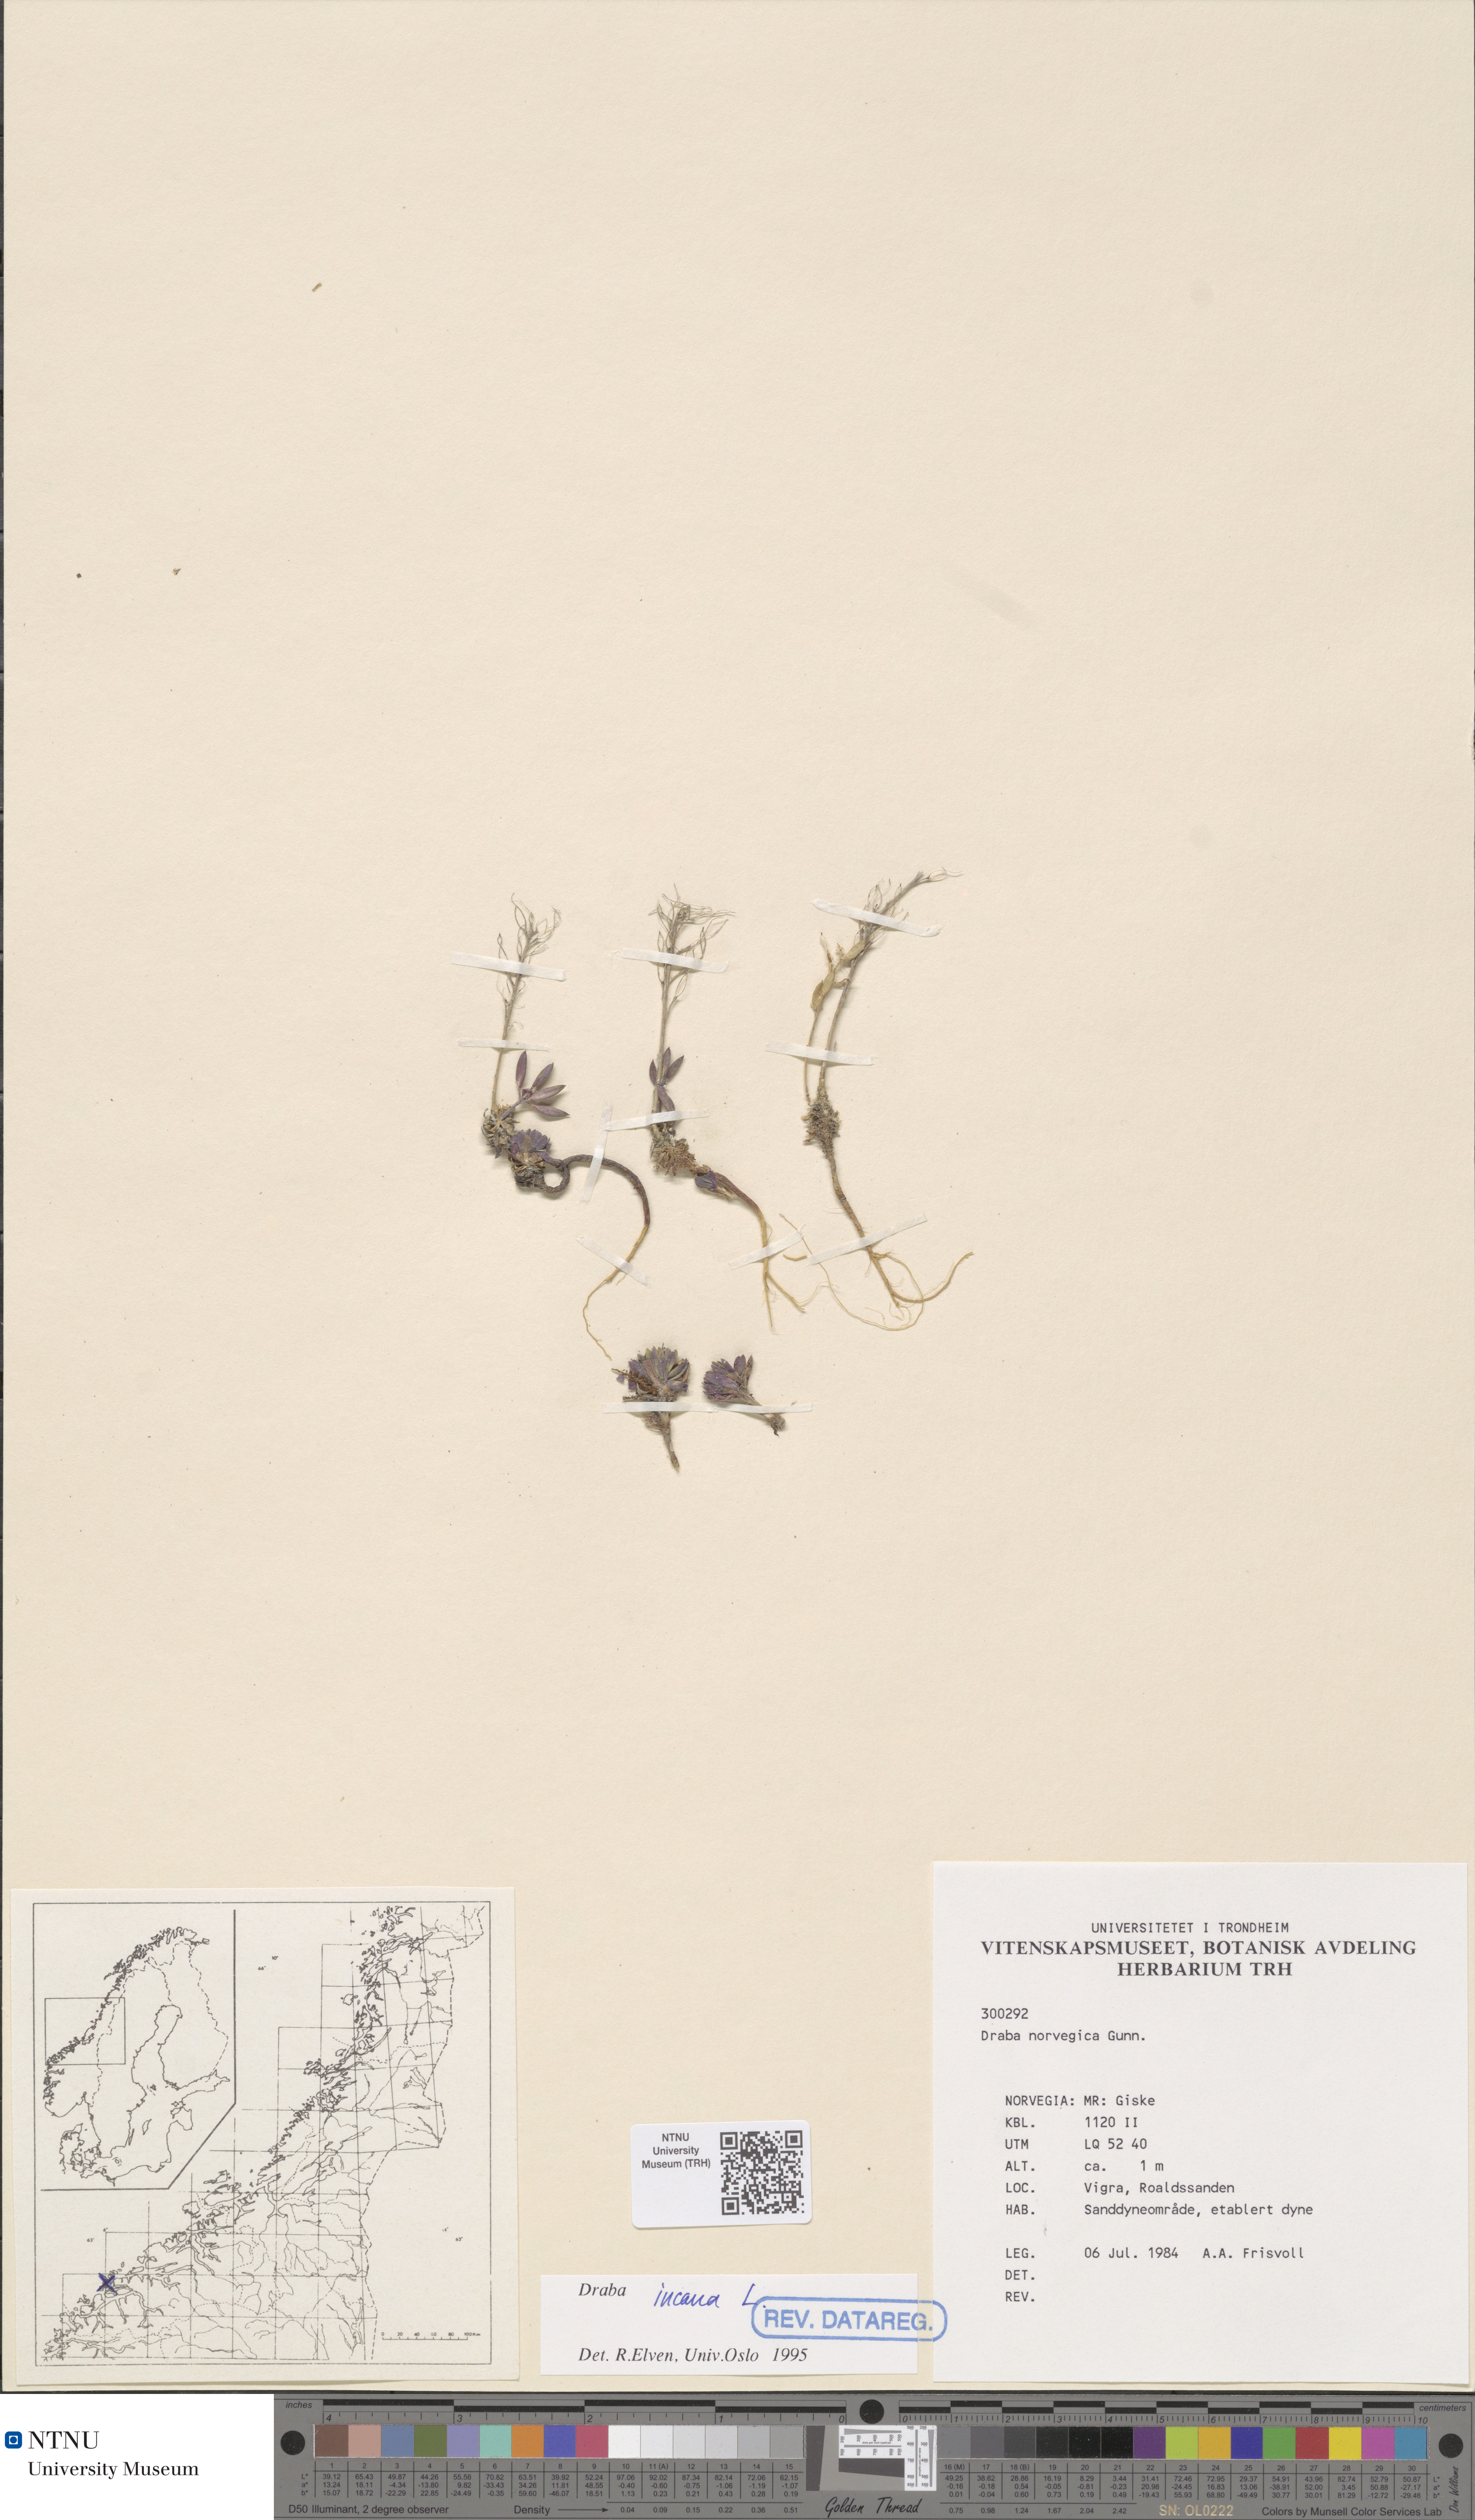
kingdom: Plantae
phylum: Tracheophyta
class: Magnoliopsida
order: Brassicales
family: Brassicaceae
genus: Draba
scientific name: Draba incana
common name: Hoary whitlow-grass
